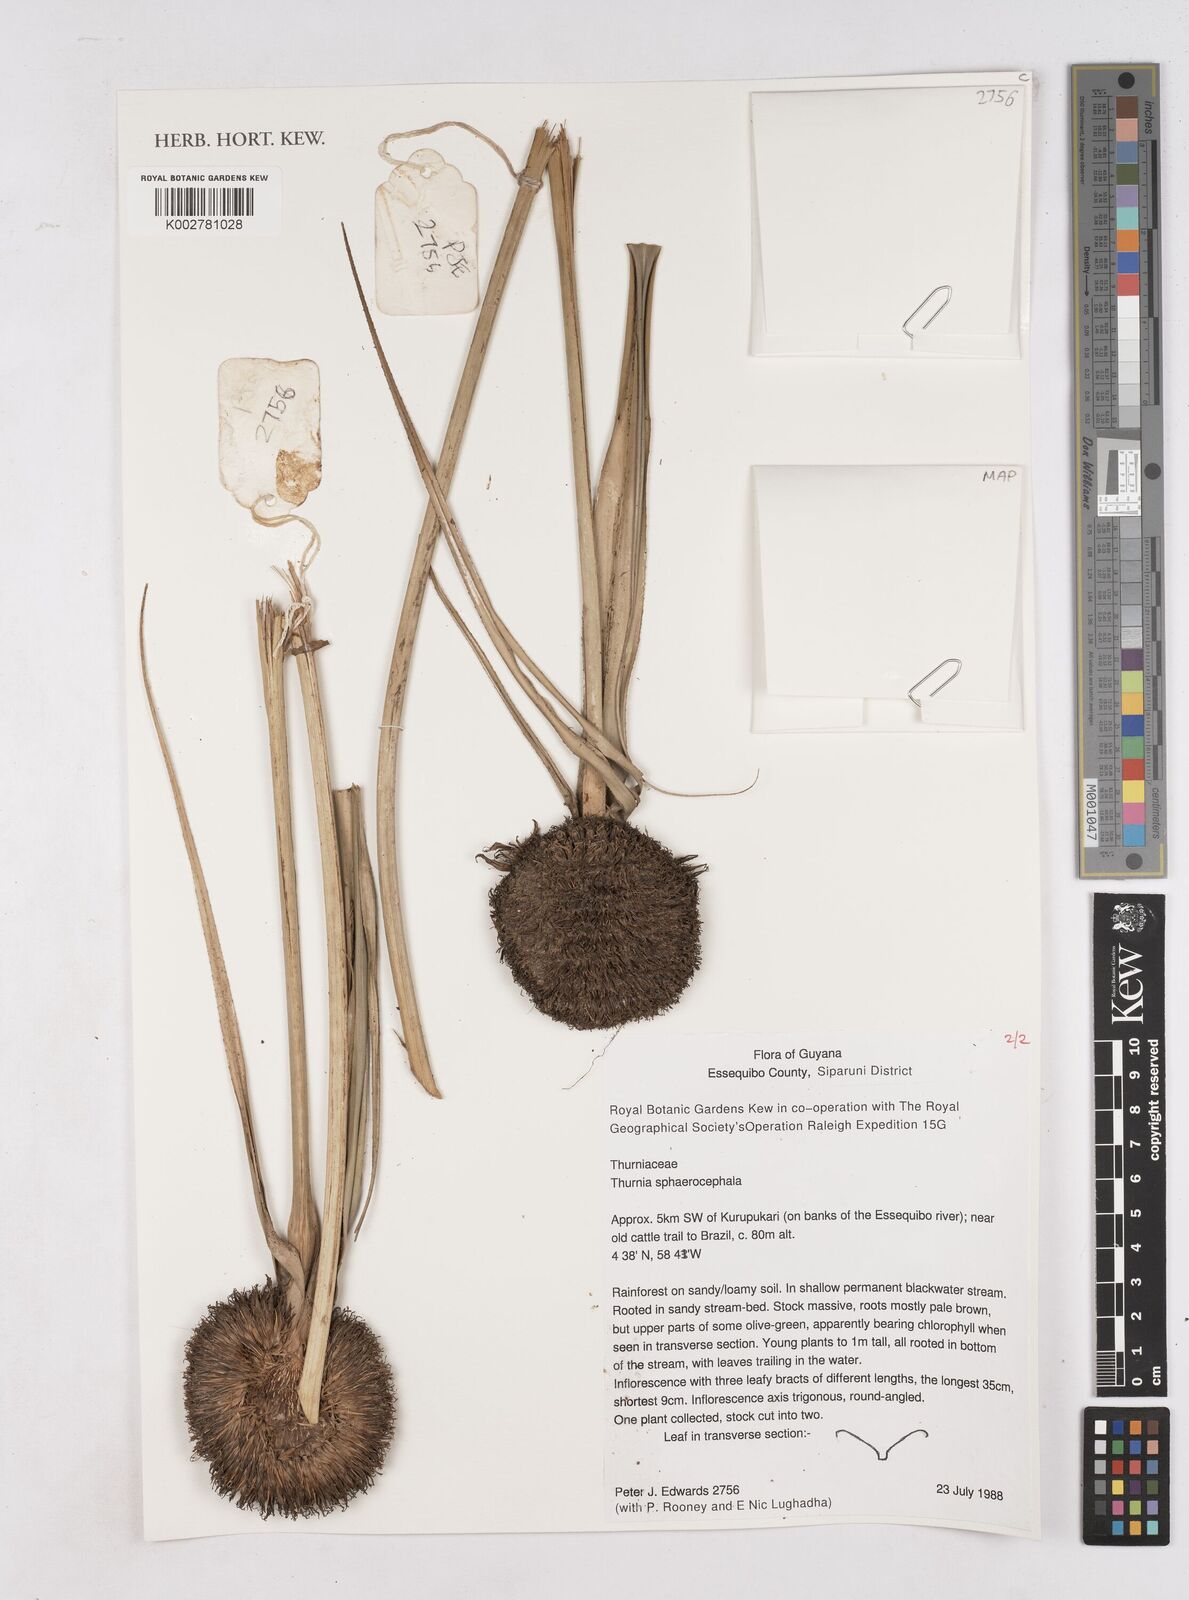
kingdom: Plantae
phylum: Tracheophyta
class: Liliopsida
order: Poales
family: Thurniaceae
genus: Thurnia
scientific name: Thurnia sphaerocephala
